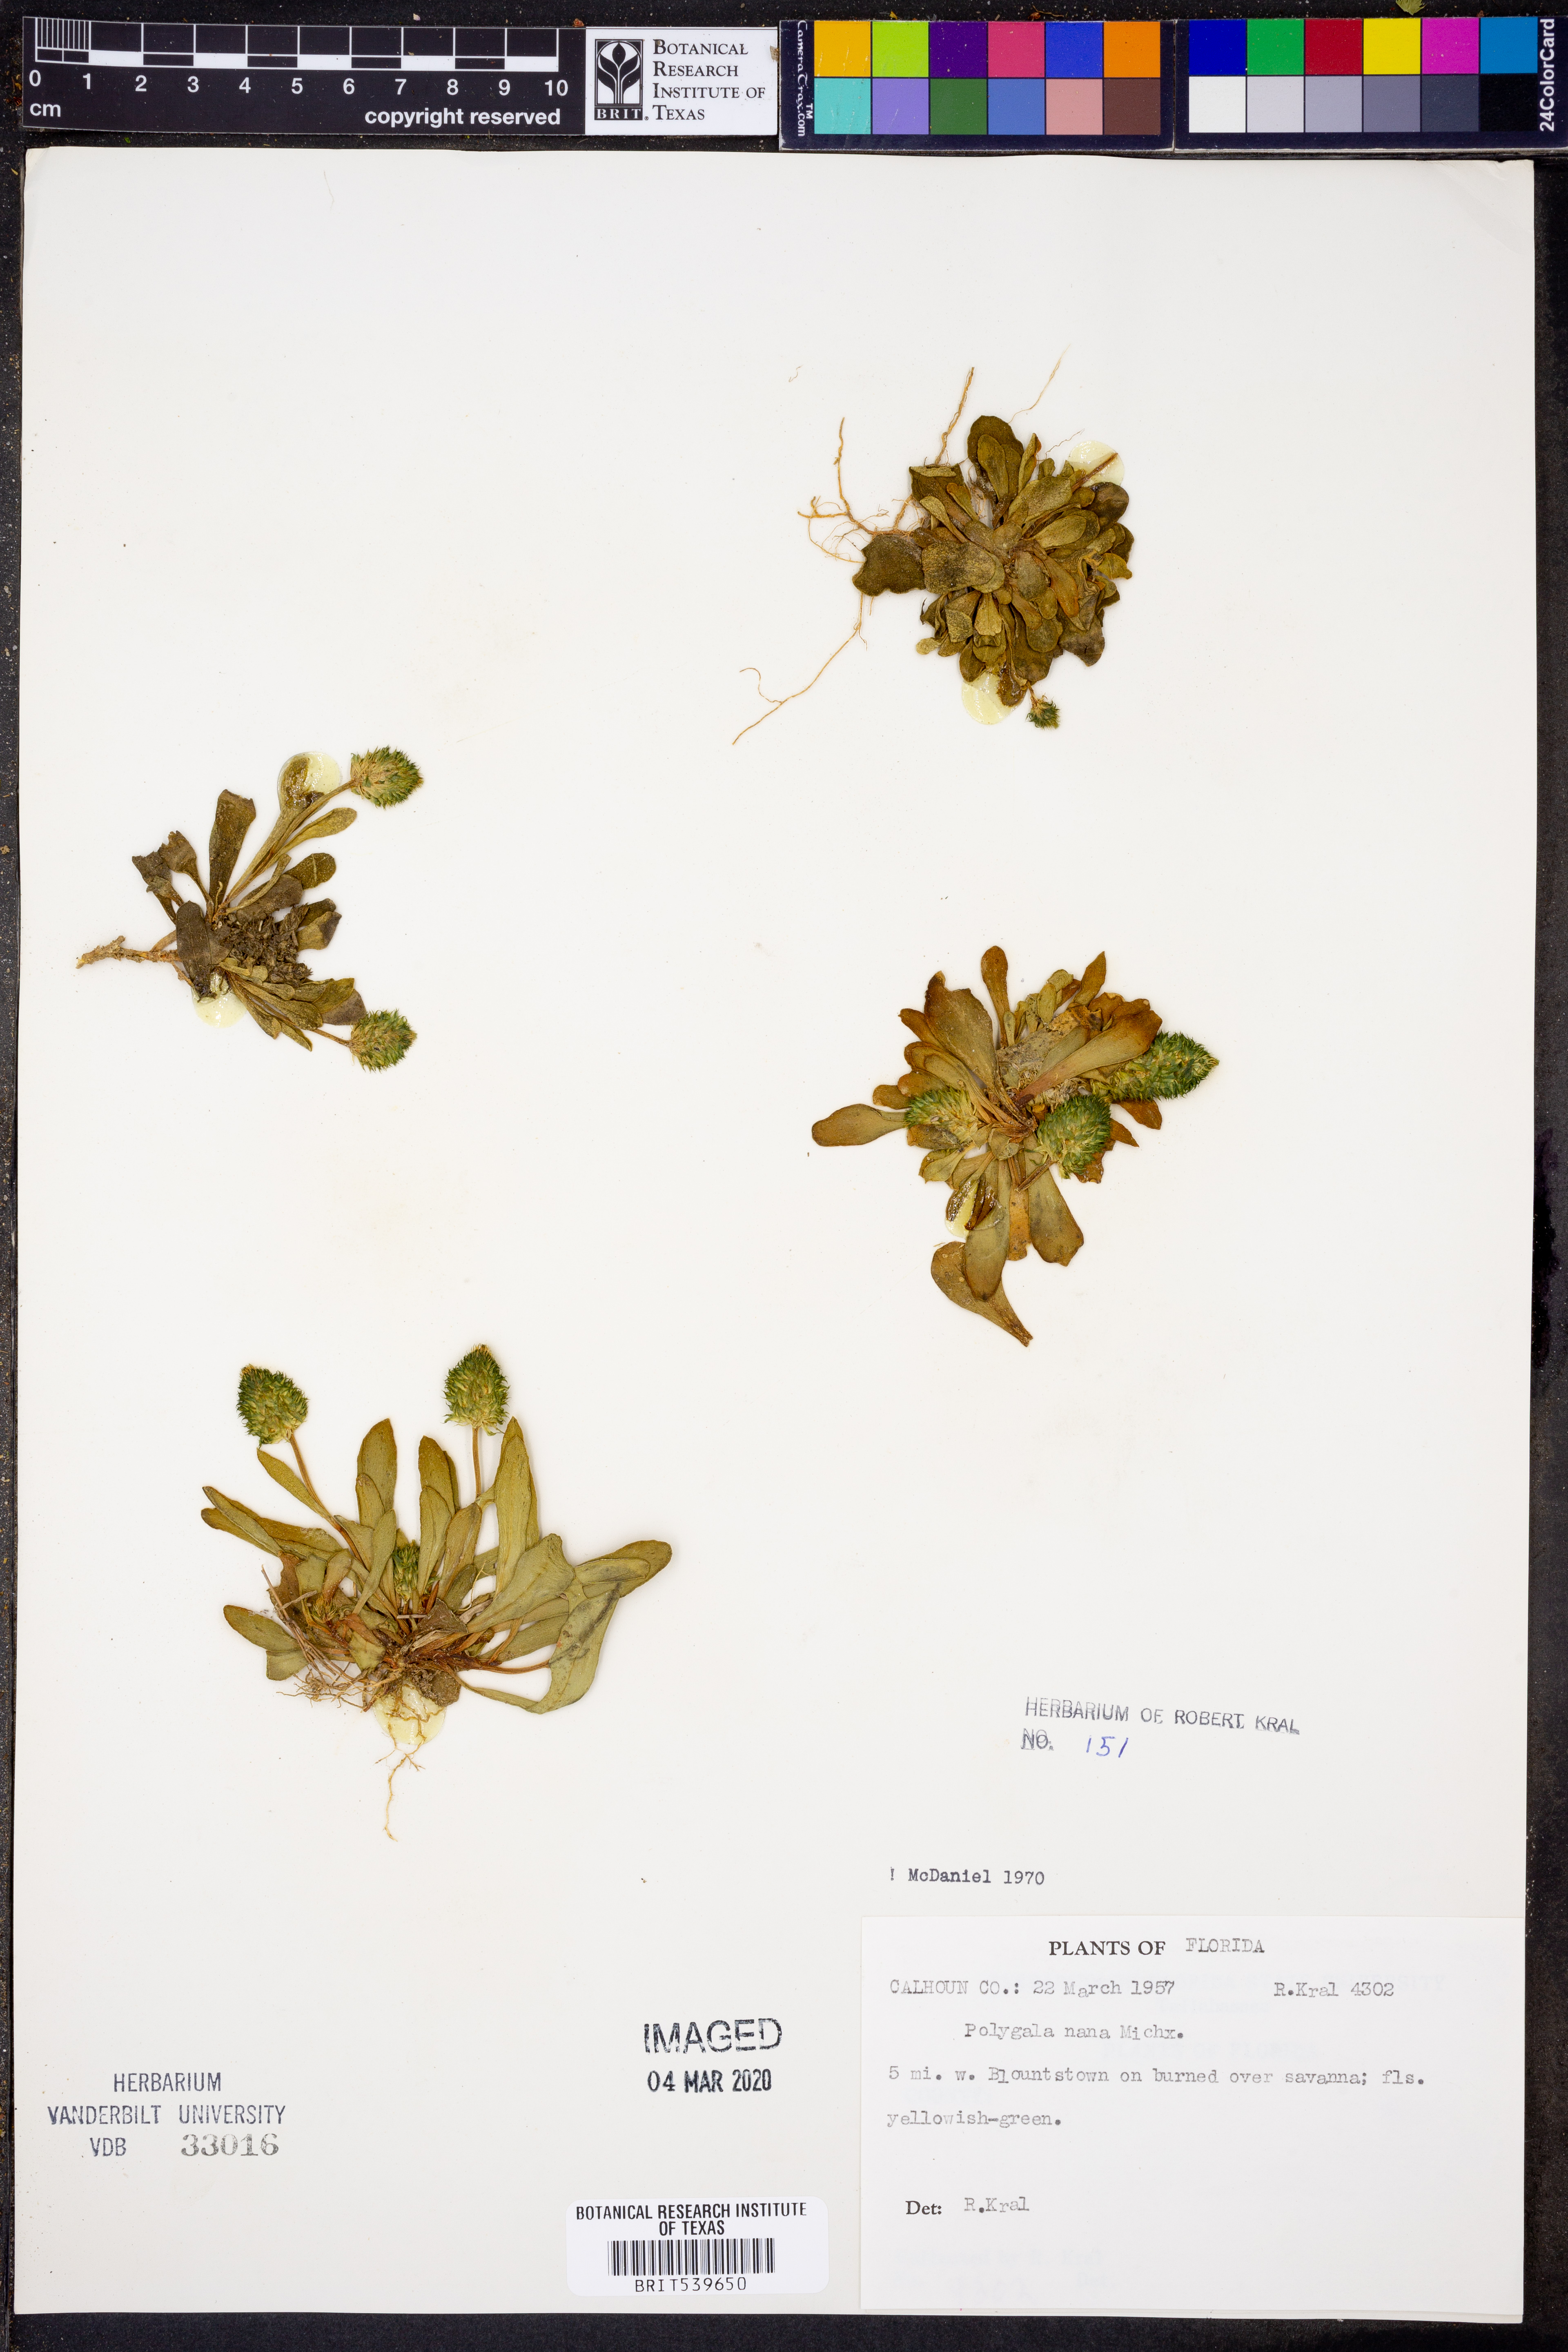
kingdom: Plantae
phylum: Tracheophyta
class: Magnoliopsida
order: Fabales
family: Polygalaceae
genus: Polygala
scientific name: Polygala nana
